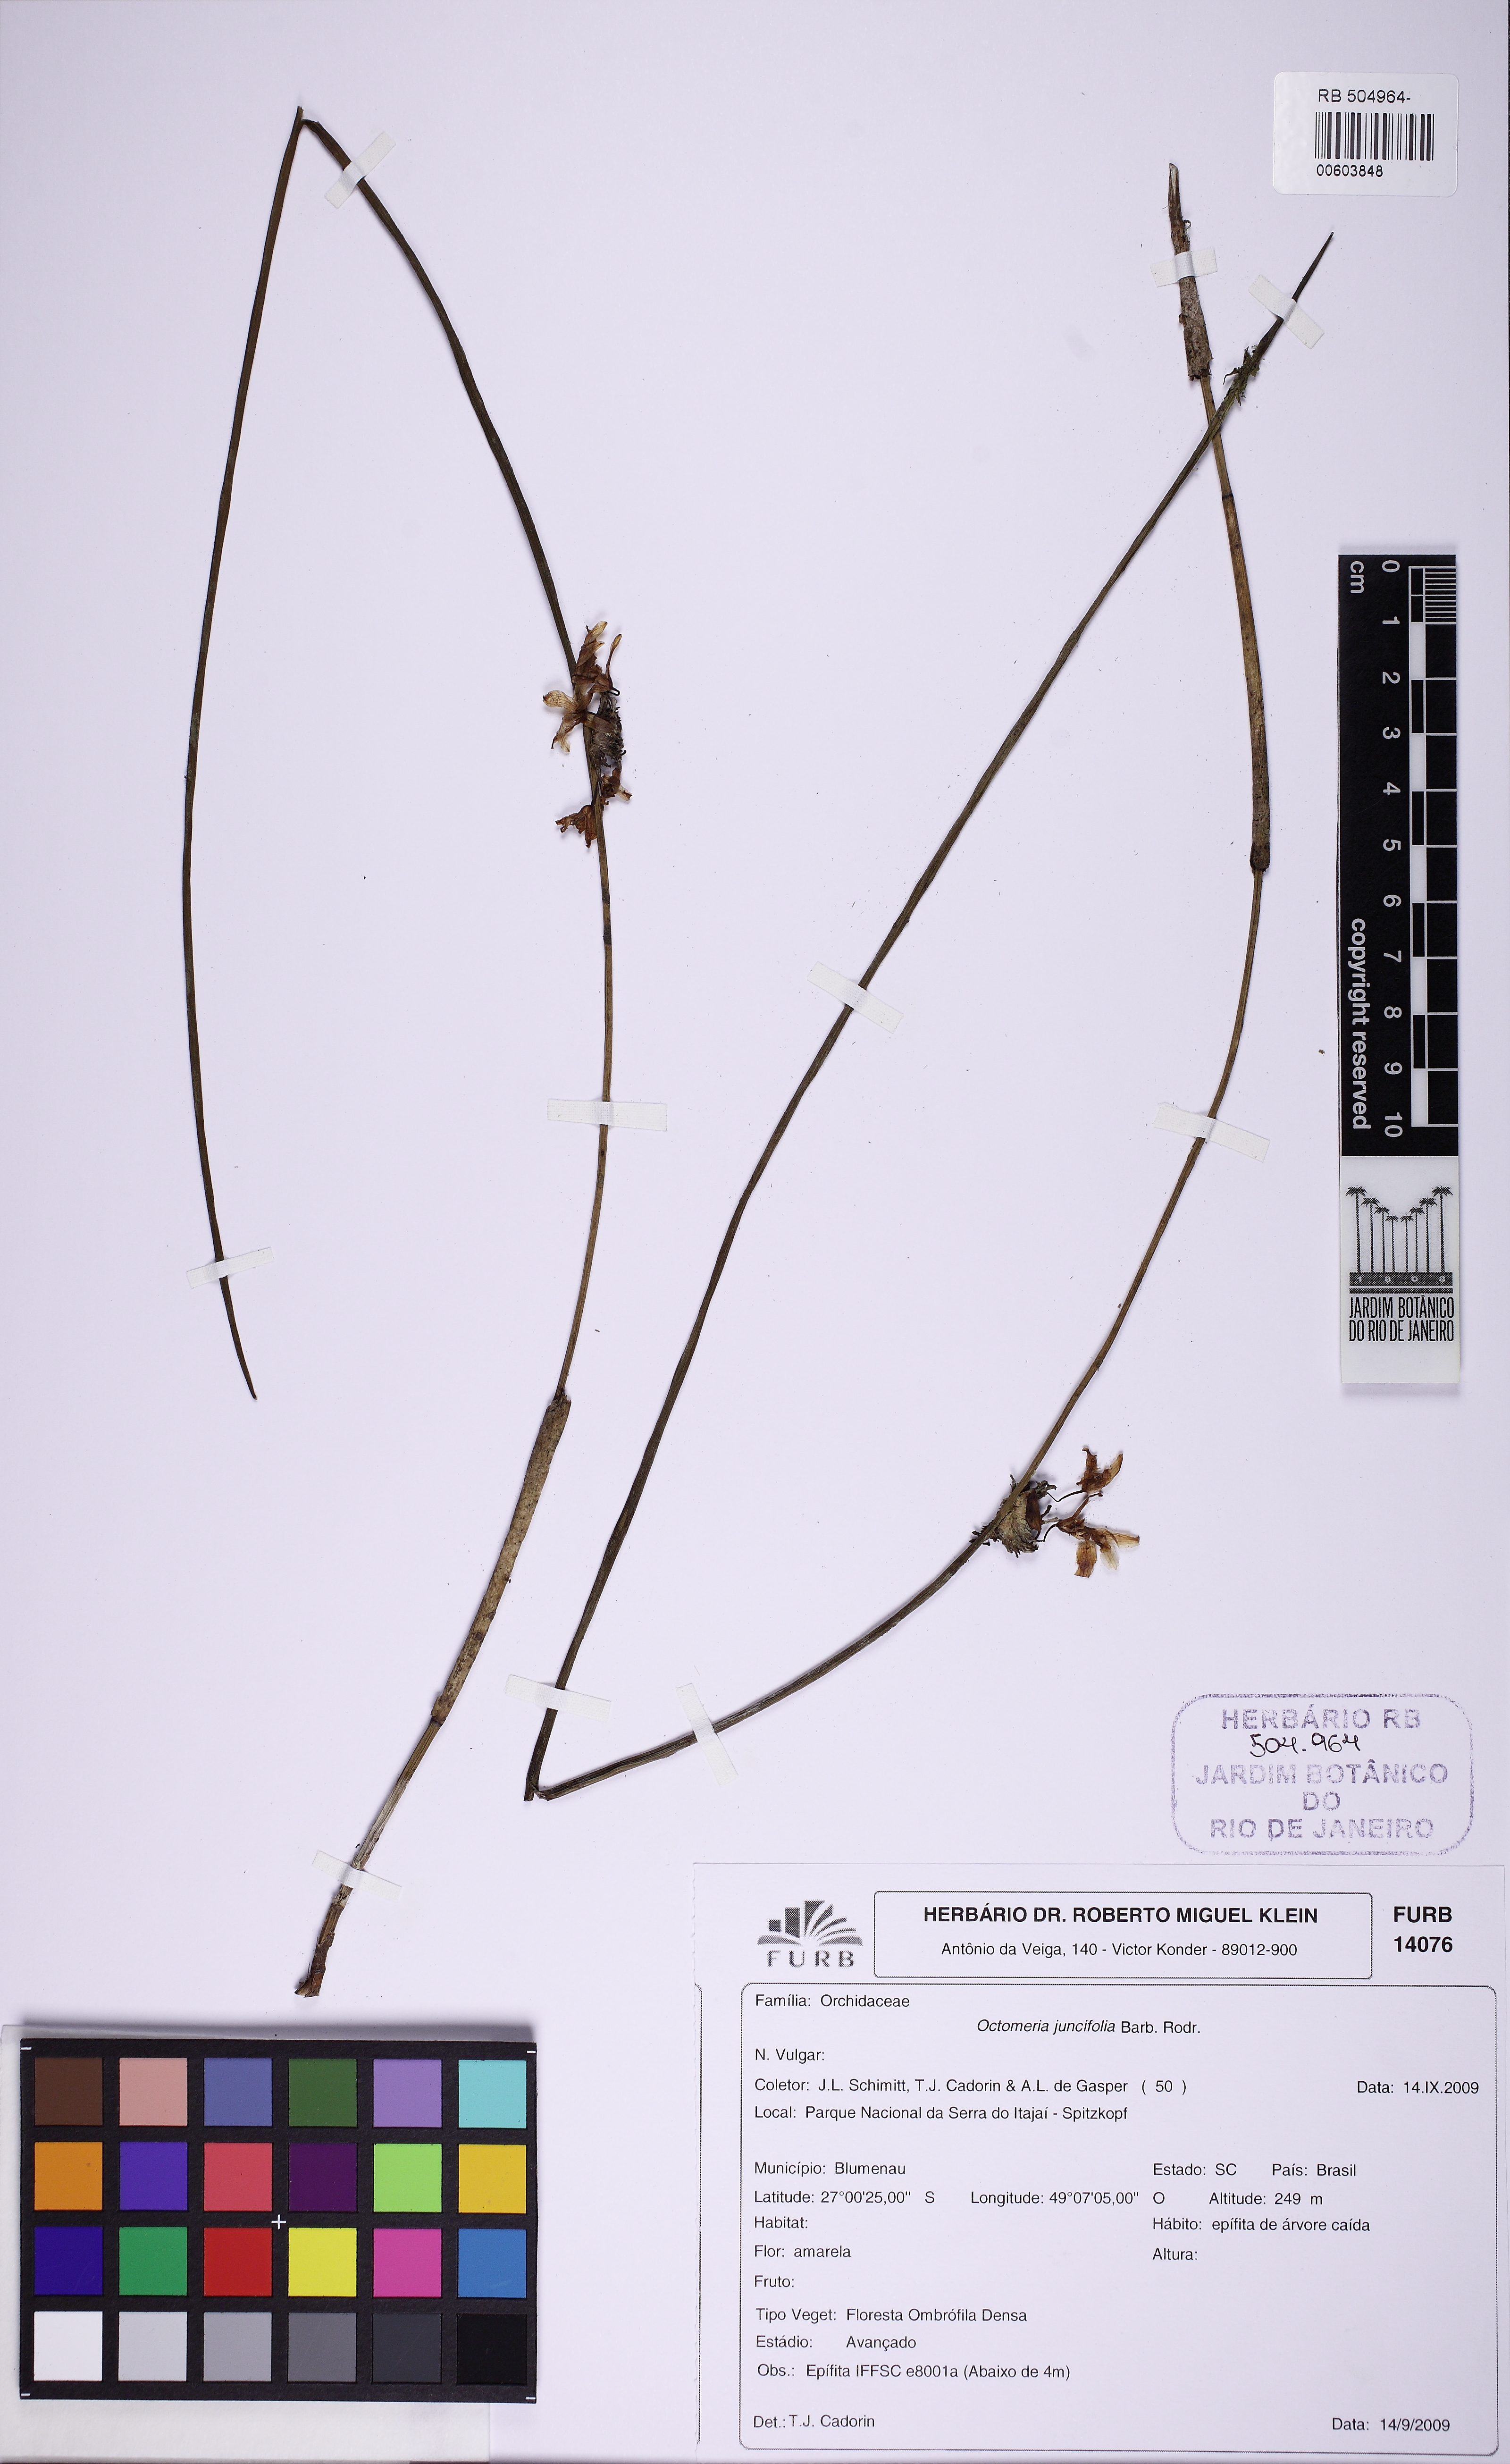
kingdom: Plantae
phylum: Tracheophyta
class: Liliopsida
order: Asparagales
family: Orchidaceae
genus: Octomeria
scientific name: Octomeria juncifolia
